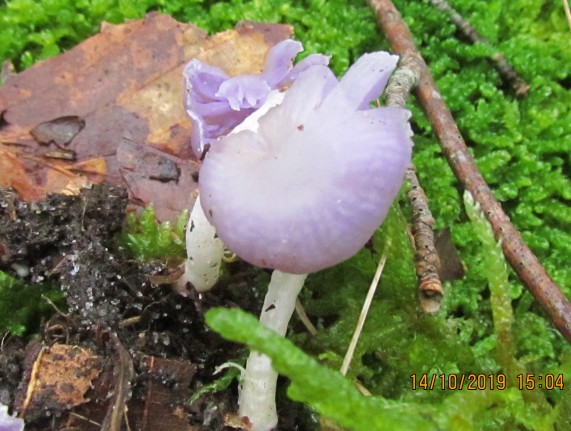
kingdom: Fungi
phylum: Basidiomycota
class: Agaricomycetes
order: Agaricales
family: Hydnangiaceae
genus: Laccaria
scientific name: Laccaria amethystina
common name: violet ametysthat
